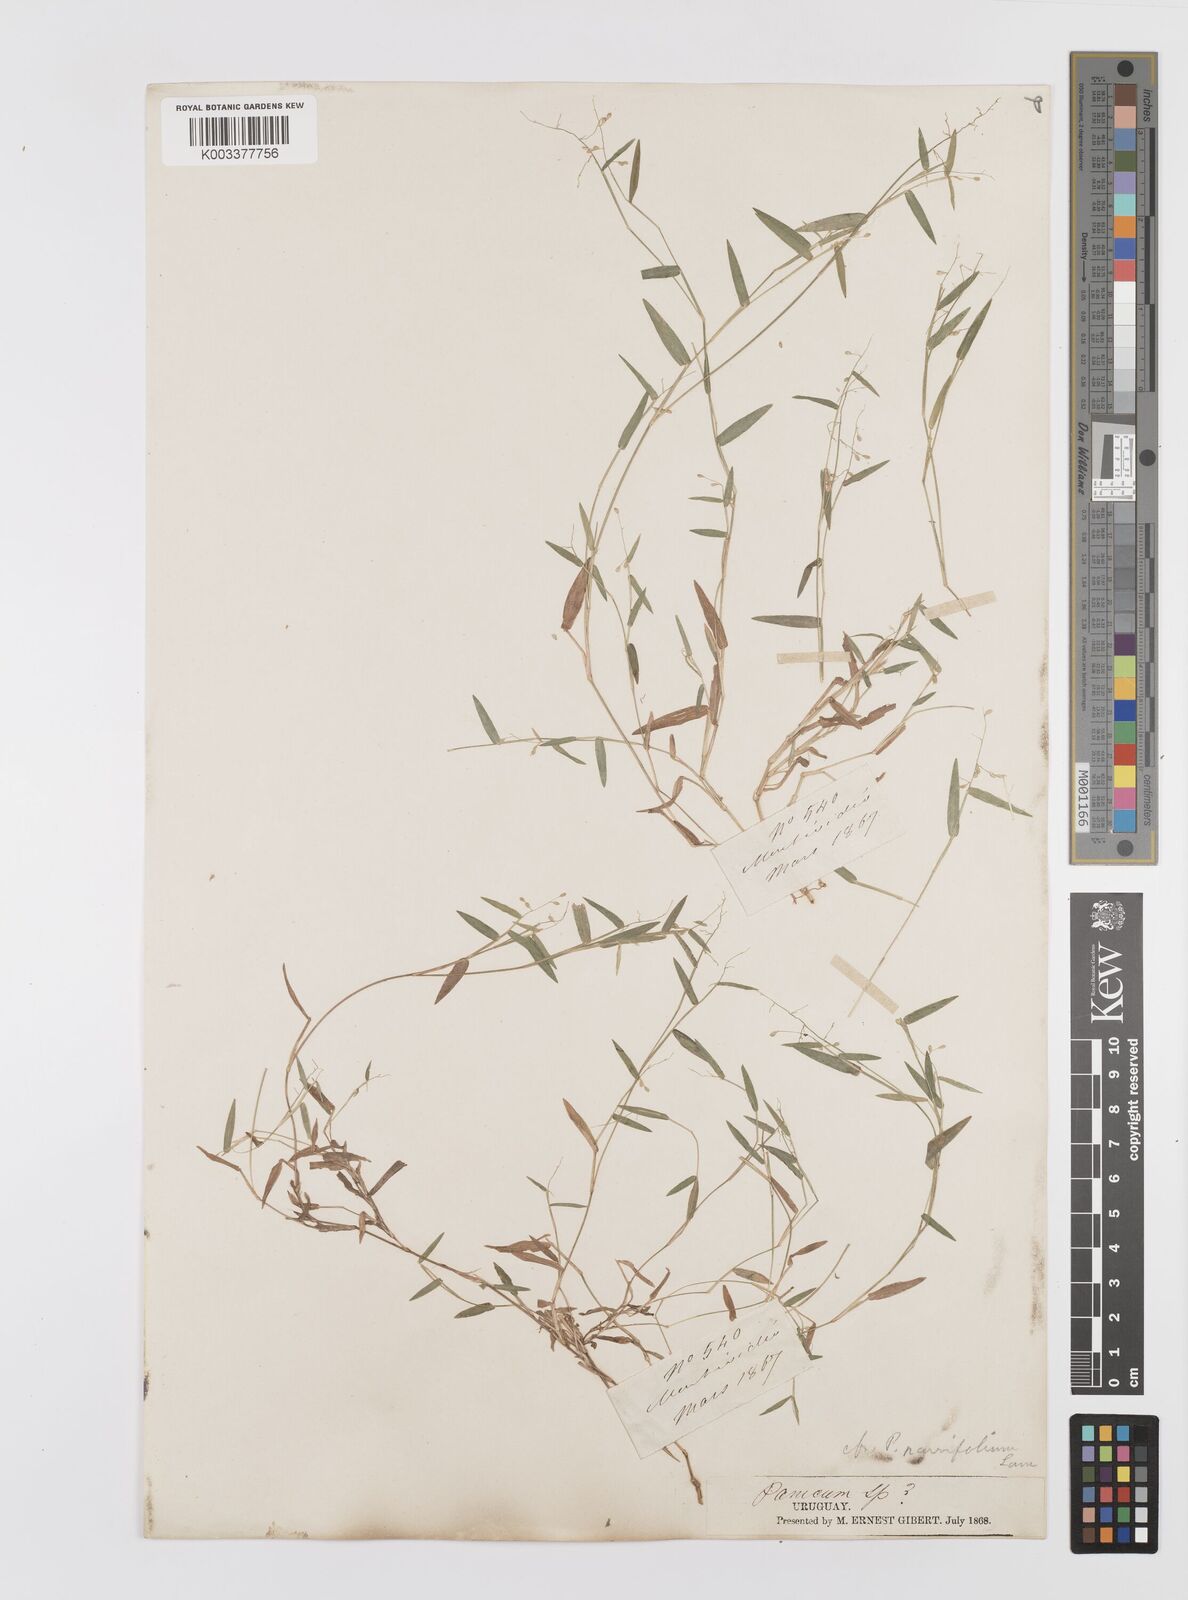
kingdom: Plantae
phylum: Tracheophyta
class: Liliopsida
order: Poales
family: Poaceae
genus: Trichanthecium
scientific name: Trichanthecium parvifolium
